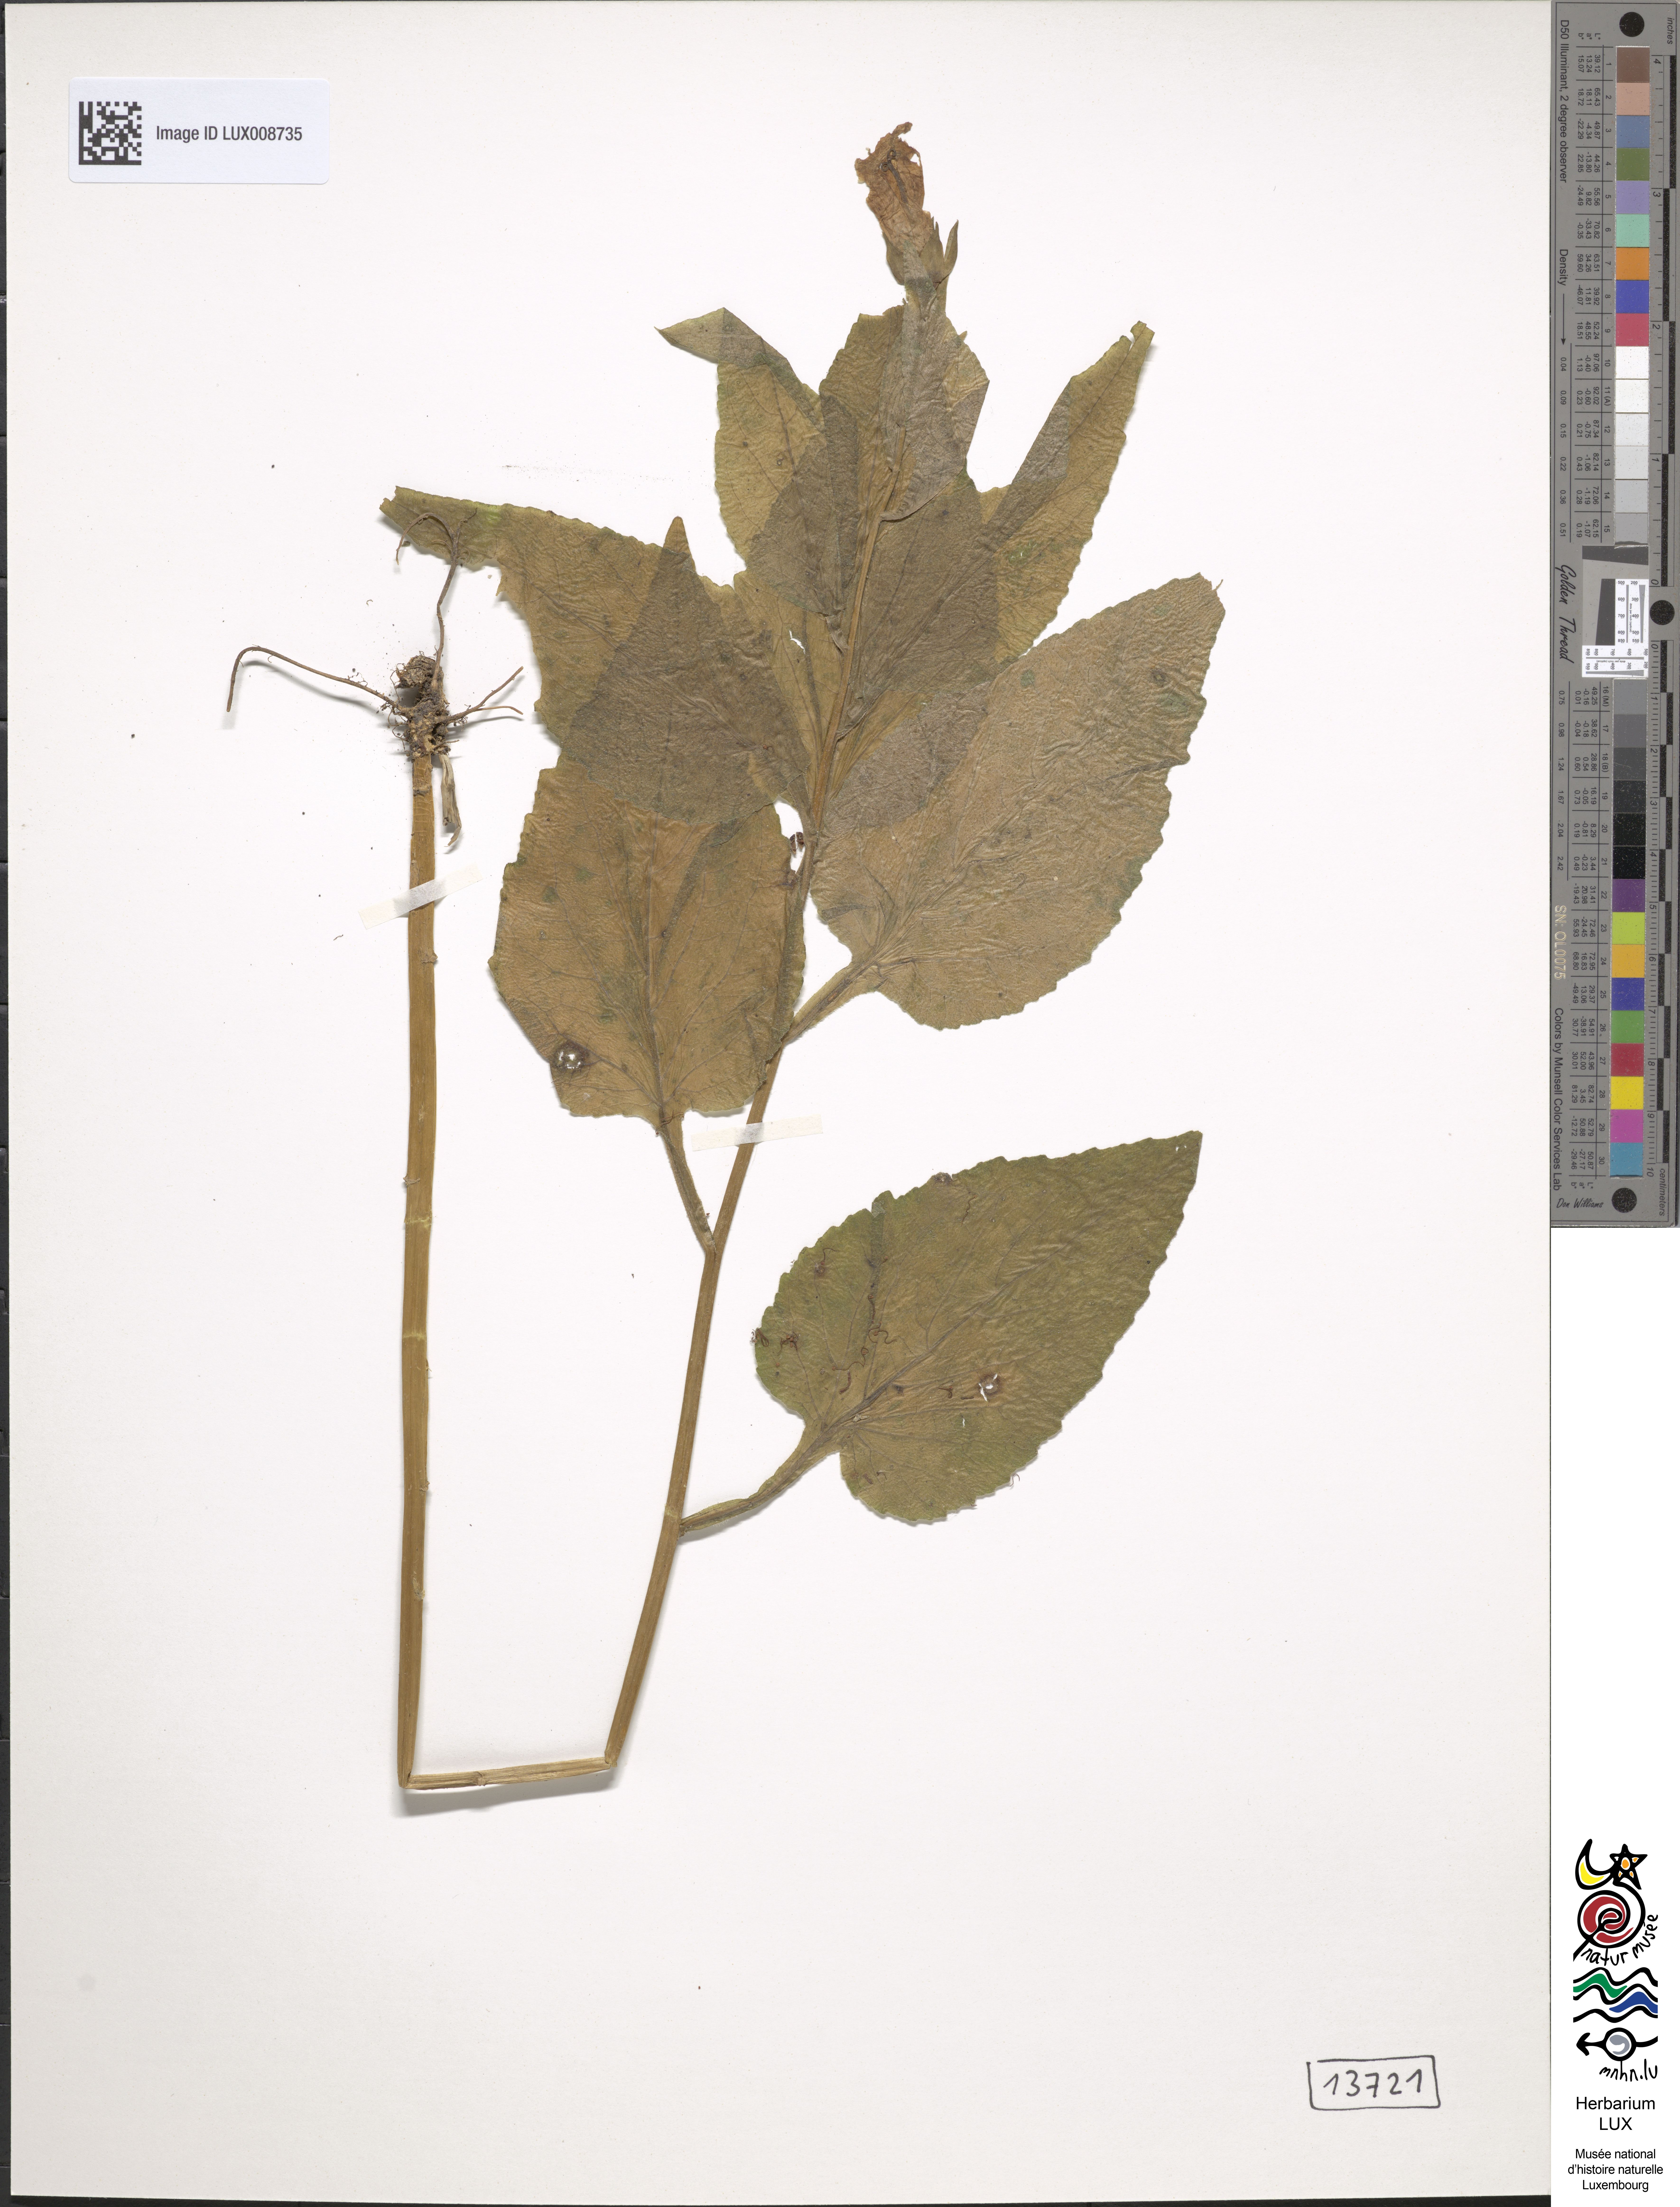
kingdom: Plantae
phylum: Tracheophyta
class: Magnoliopsida
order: Asterales
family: Campanulaceae
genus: Campanula
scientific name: Campanula latifolia
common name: Giant bellflower
